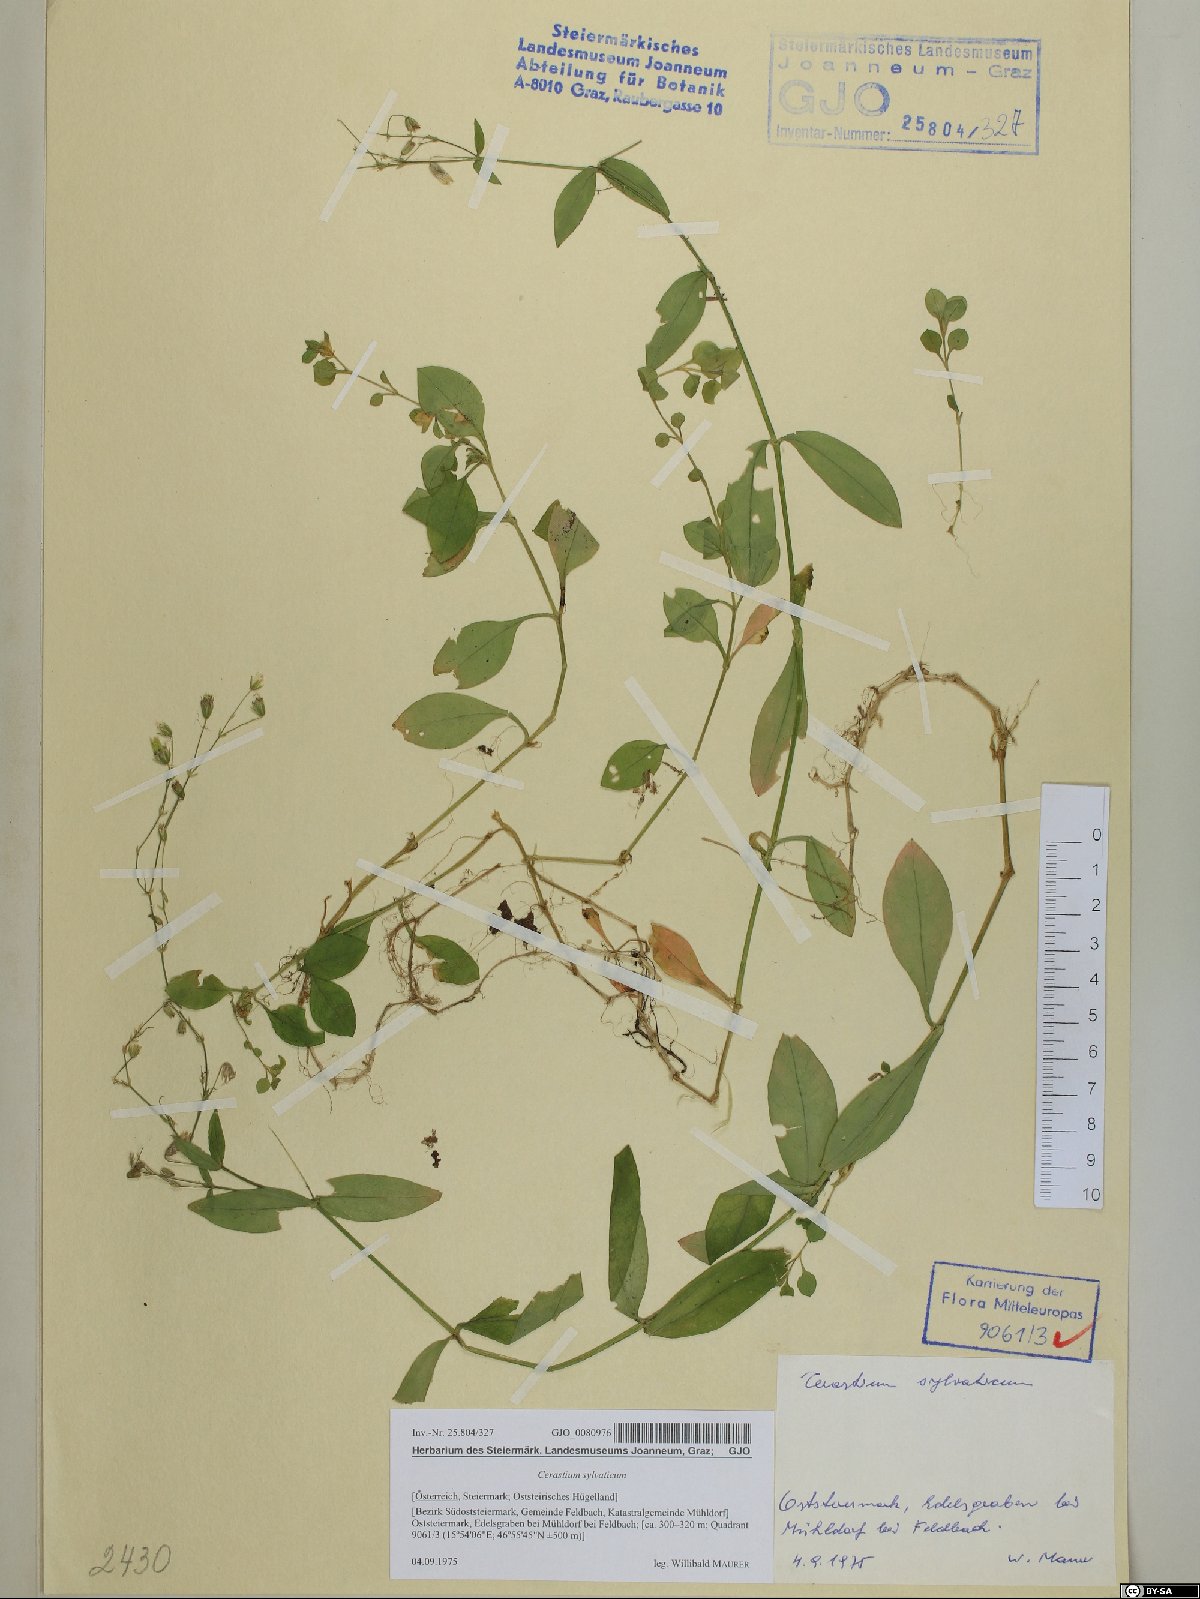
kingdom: Plantae
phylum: Tracheophyta
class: Magnoliopsida
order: Caryophyllales
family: Caryophyllaceae
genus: Cerastium
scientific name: Cerastium sylvaticum
